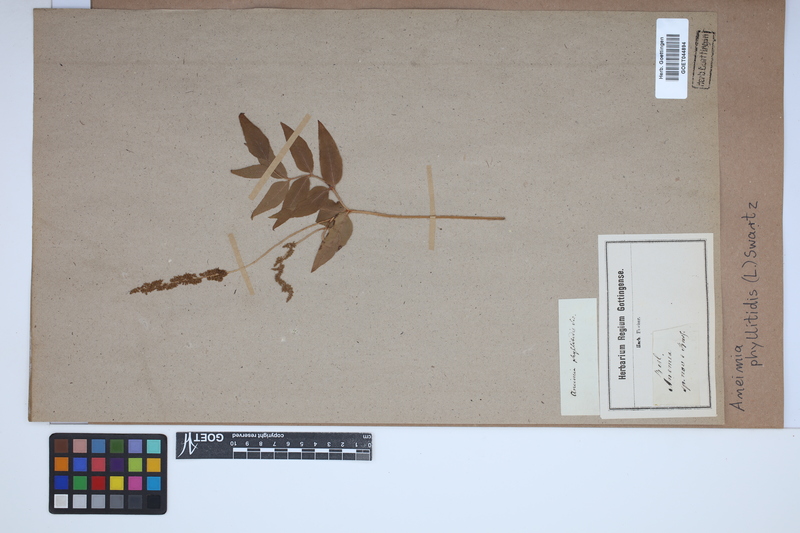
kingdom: Plantae
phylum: Tracheophyta
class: Polypodiopsida
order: Schizaeales
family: Anemiaceae
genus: Anemia
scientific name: Anemia phyllitidis
